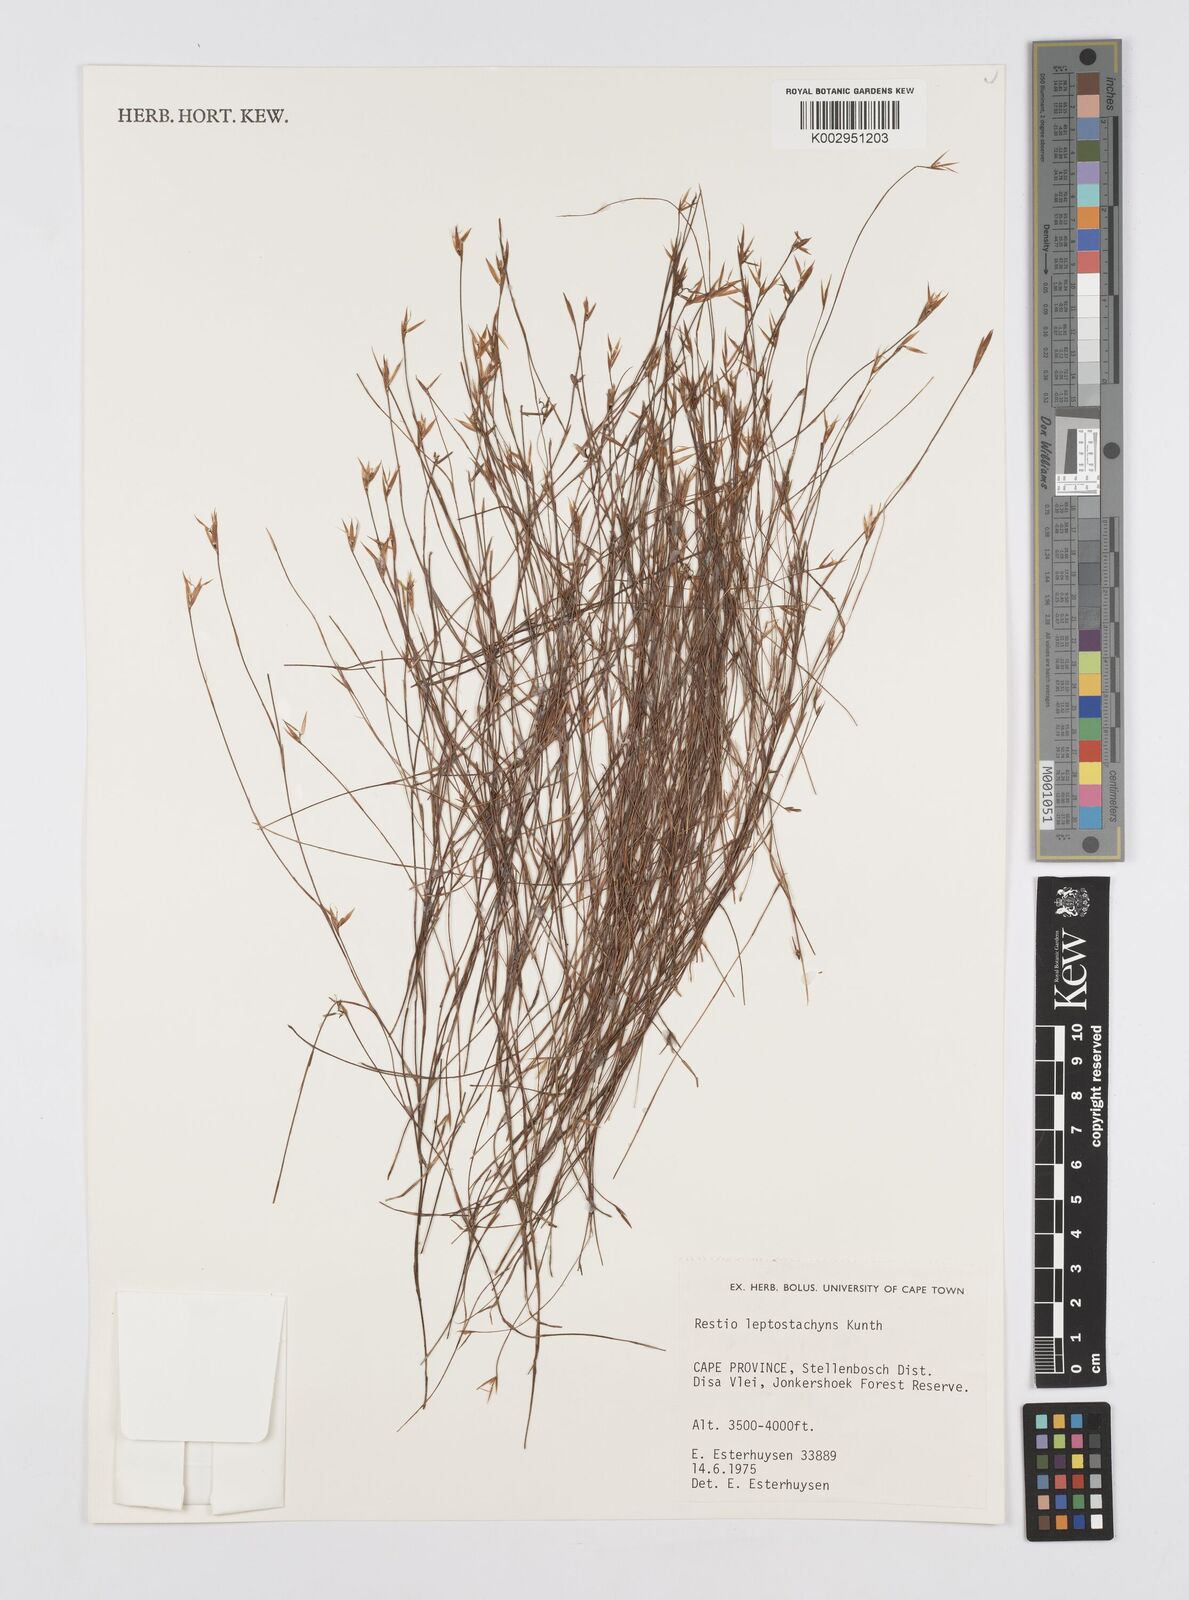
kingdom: Plantae
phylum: Tracheophyta
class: Liliopsida
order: Poales
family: Restionaceae
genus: Restio
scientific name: Restio leptostachyus
